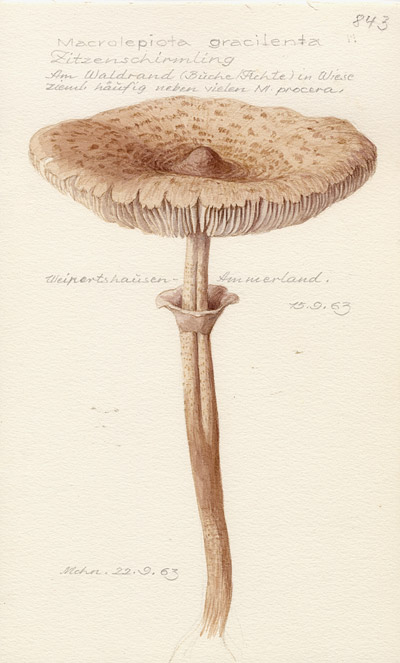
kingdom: Fungi
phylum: Basidiomycota
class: Agaricomycetes
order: Agaricales
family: Agaricaceae
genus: Macrolepiota
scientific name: Macrolepiota mastoidea
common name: Slender parasol
